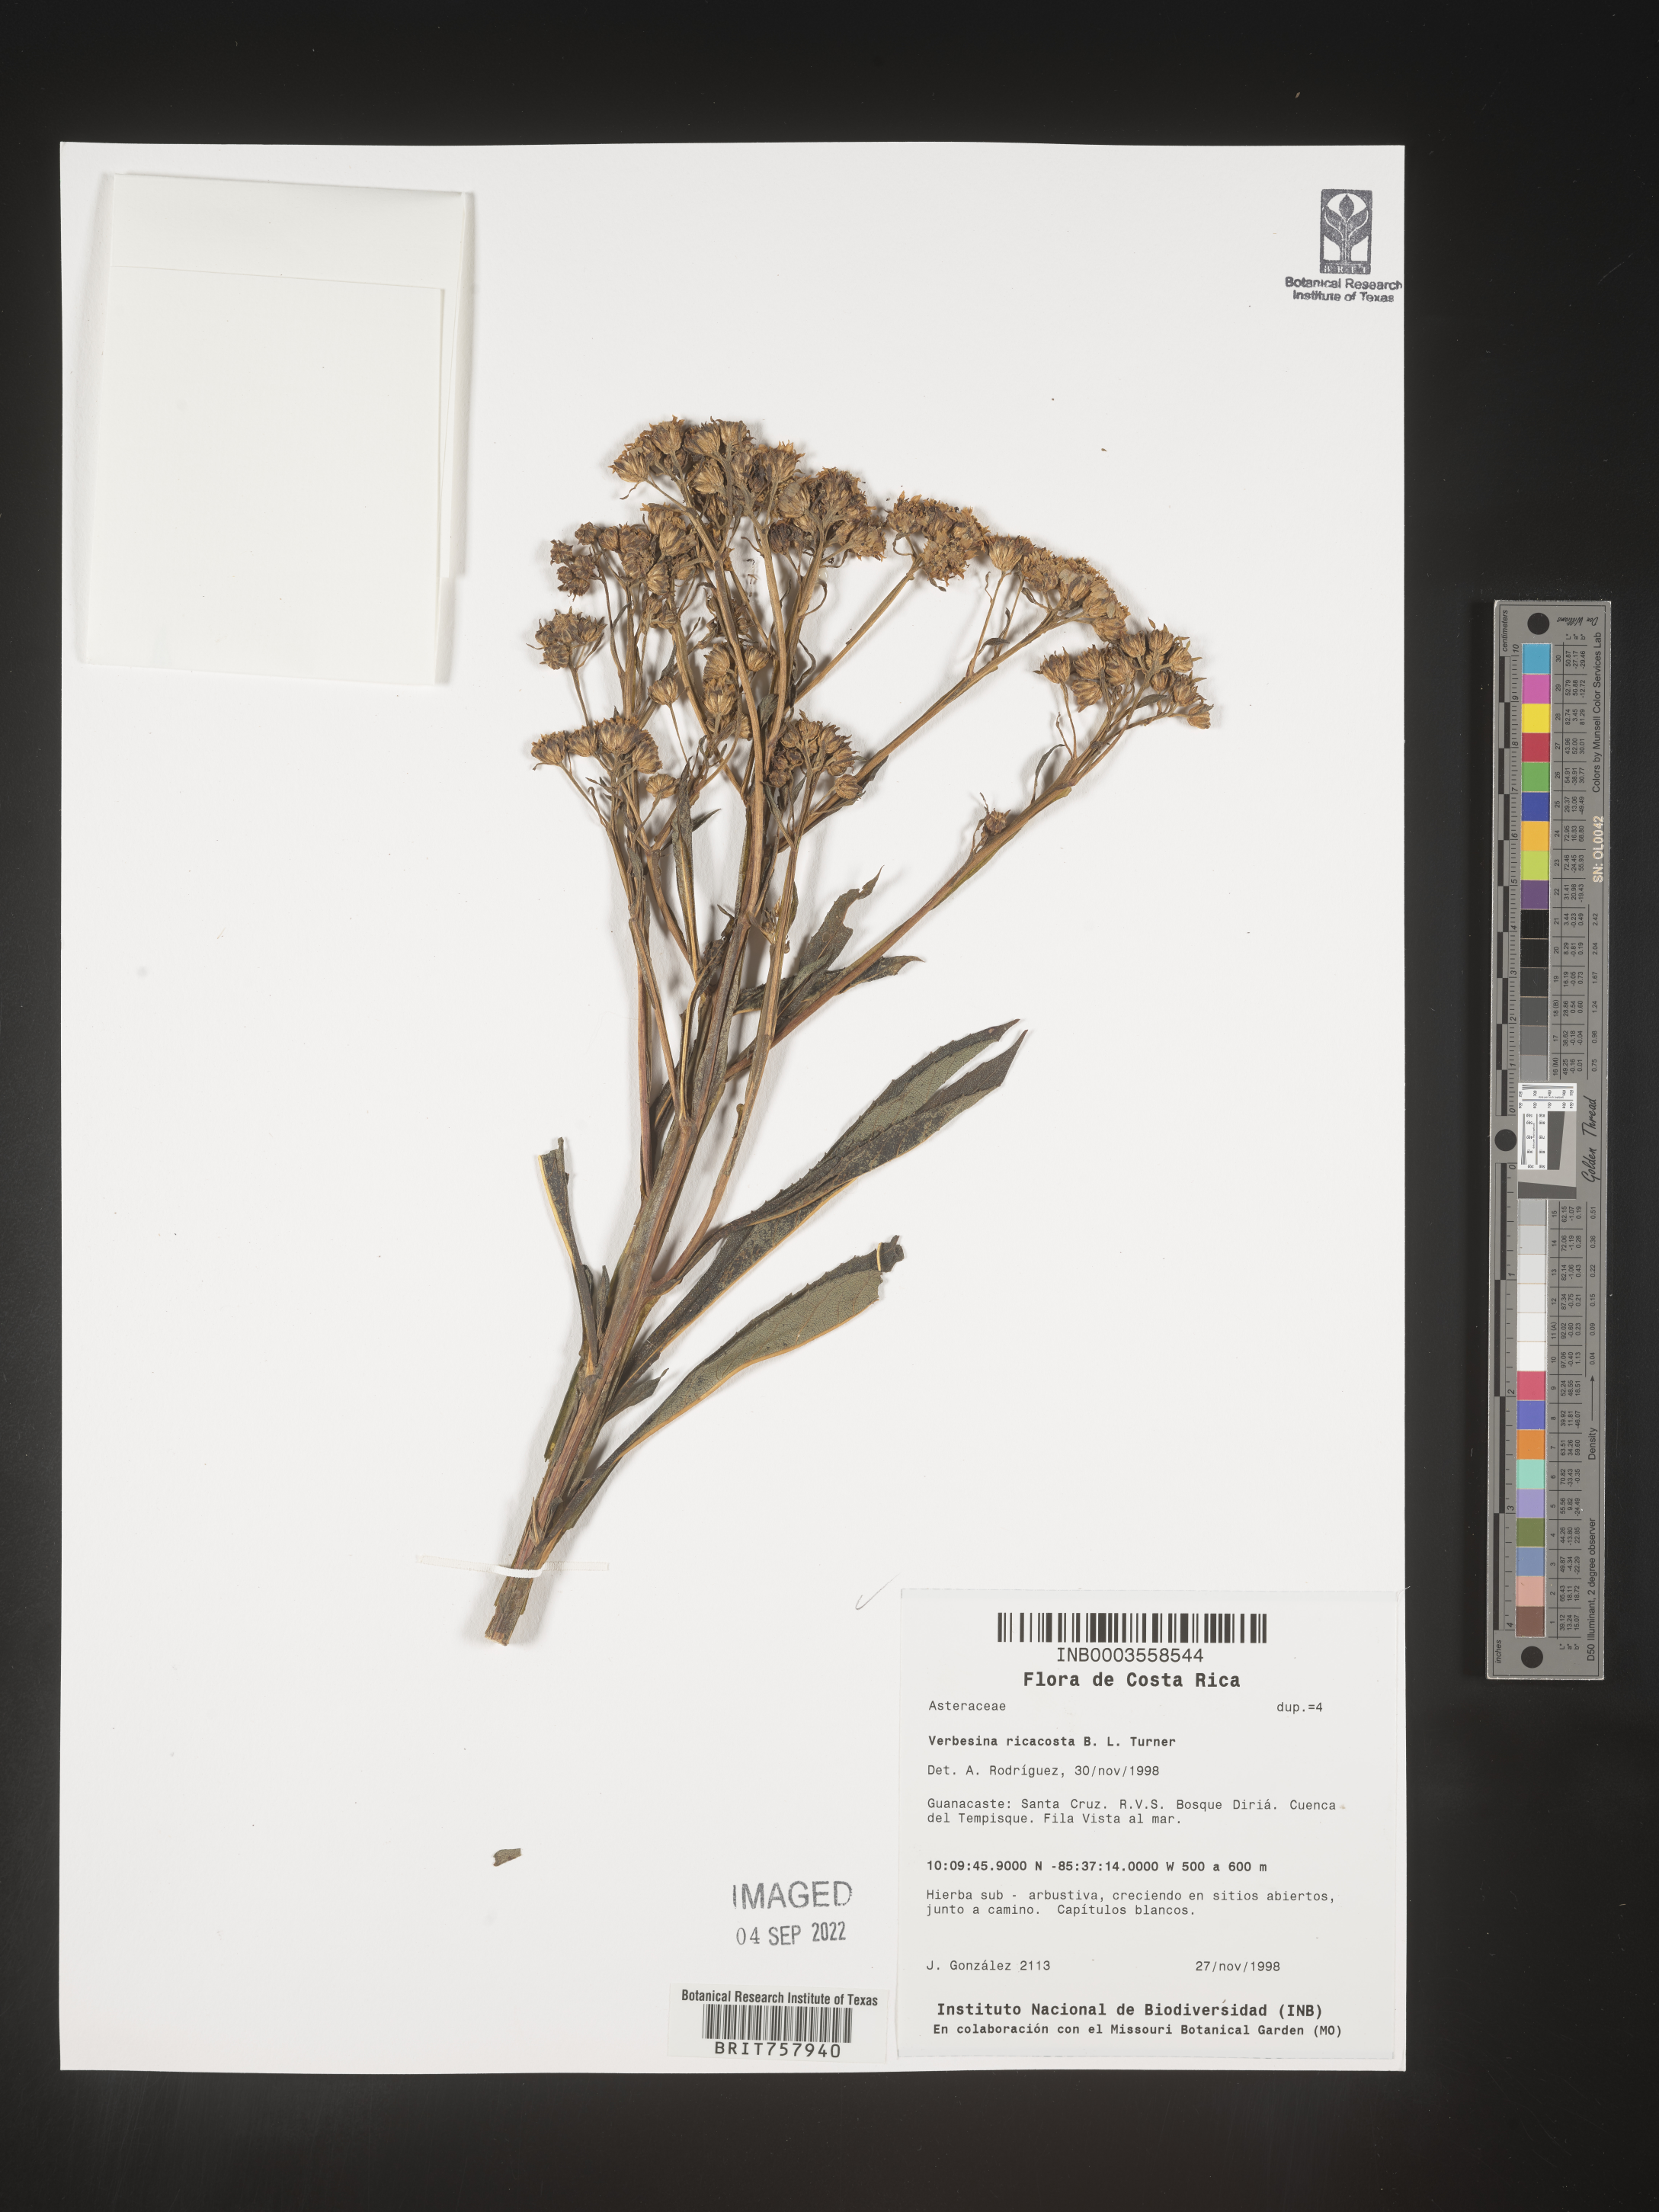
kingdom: Plantae
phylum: Tracheophyta
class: Magnoliopsida
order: Asterales
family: Asteraceae
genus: Verbesina
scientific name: Verbesina
